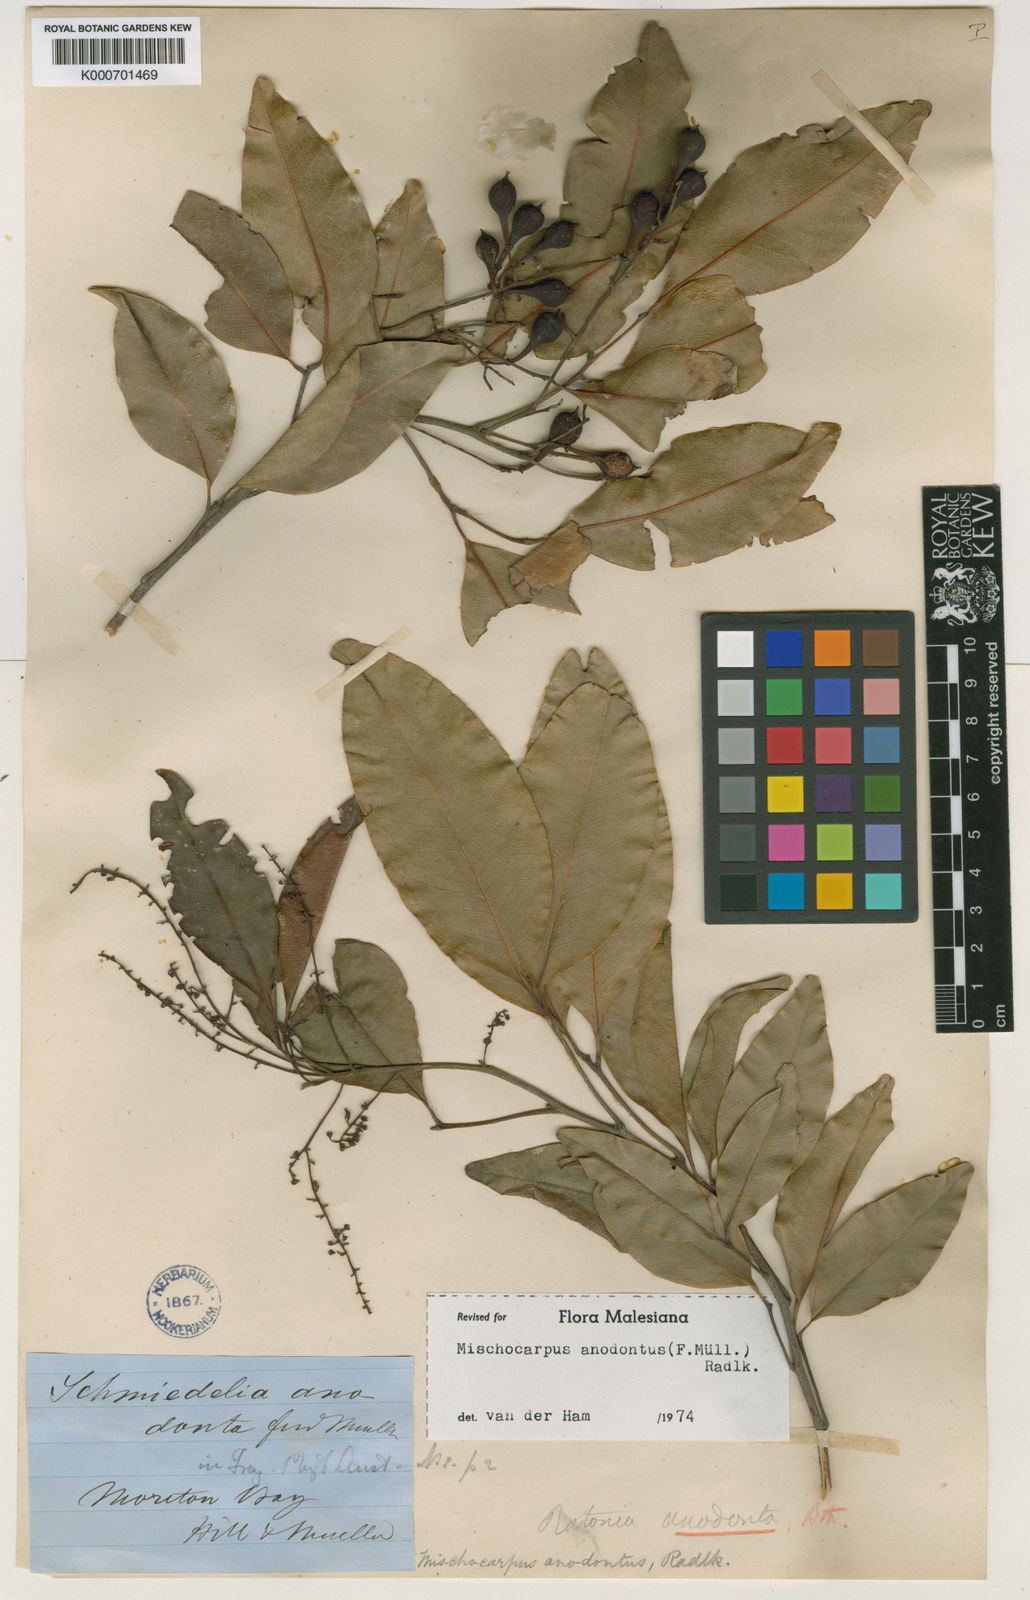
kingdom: Plantae
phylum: Tracheophyta
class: Magnoliopsida
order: Sapindales
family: Sapindaceae
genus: Mischocarpus
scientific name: Mischocarpus anodontus
